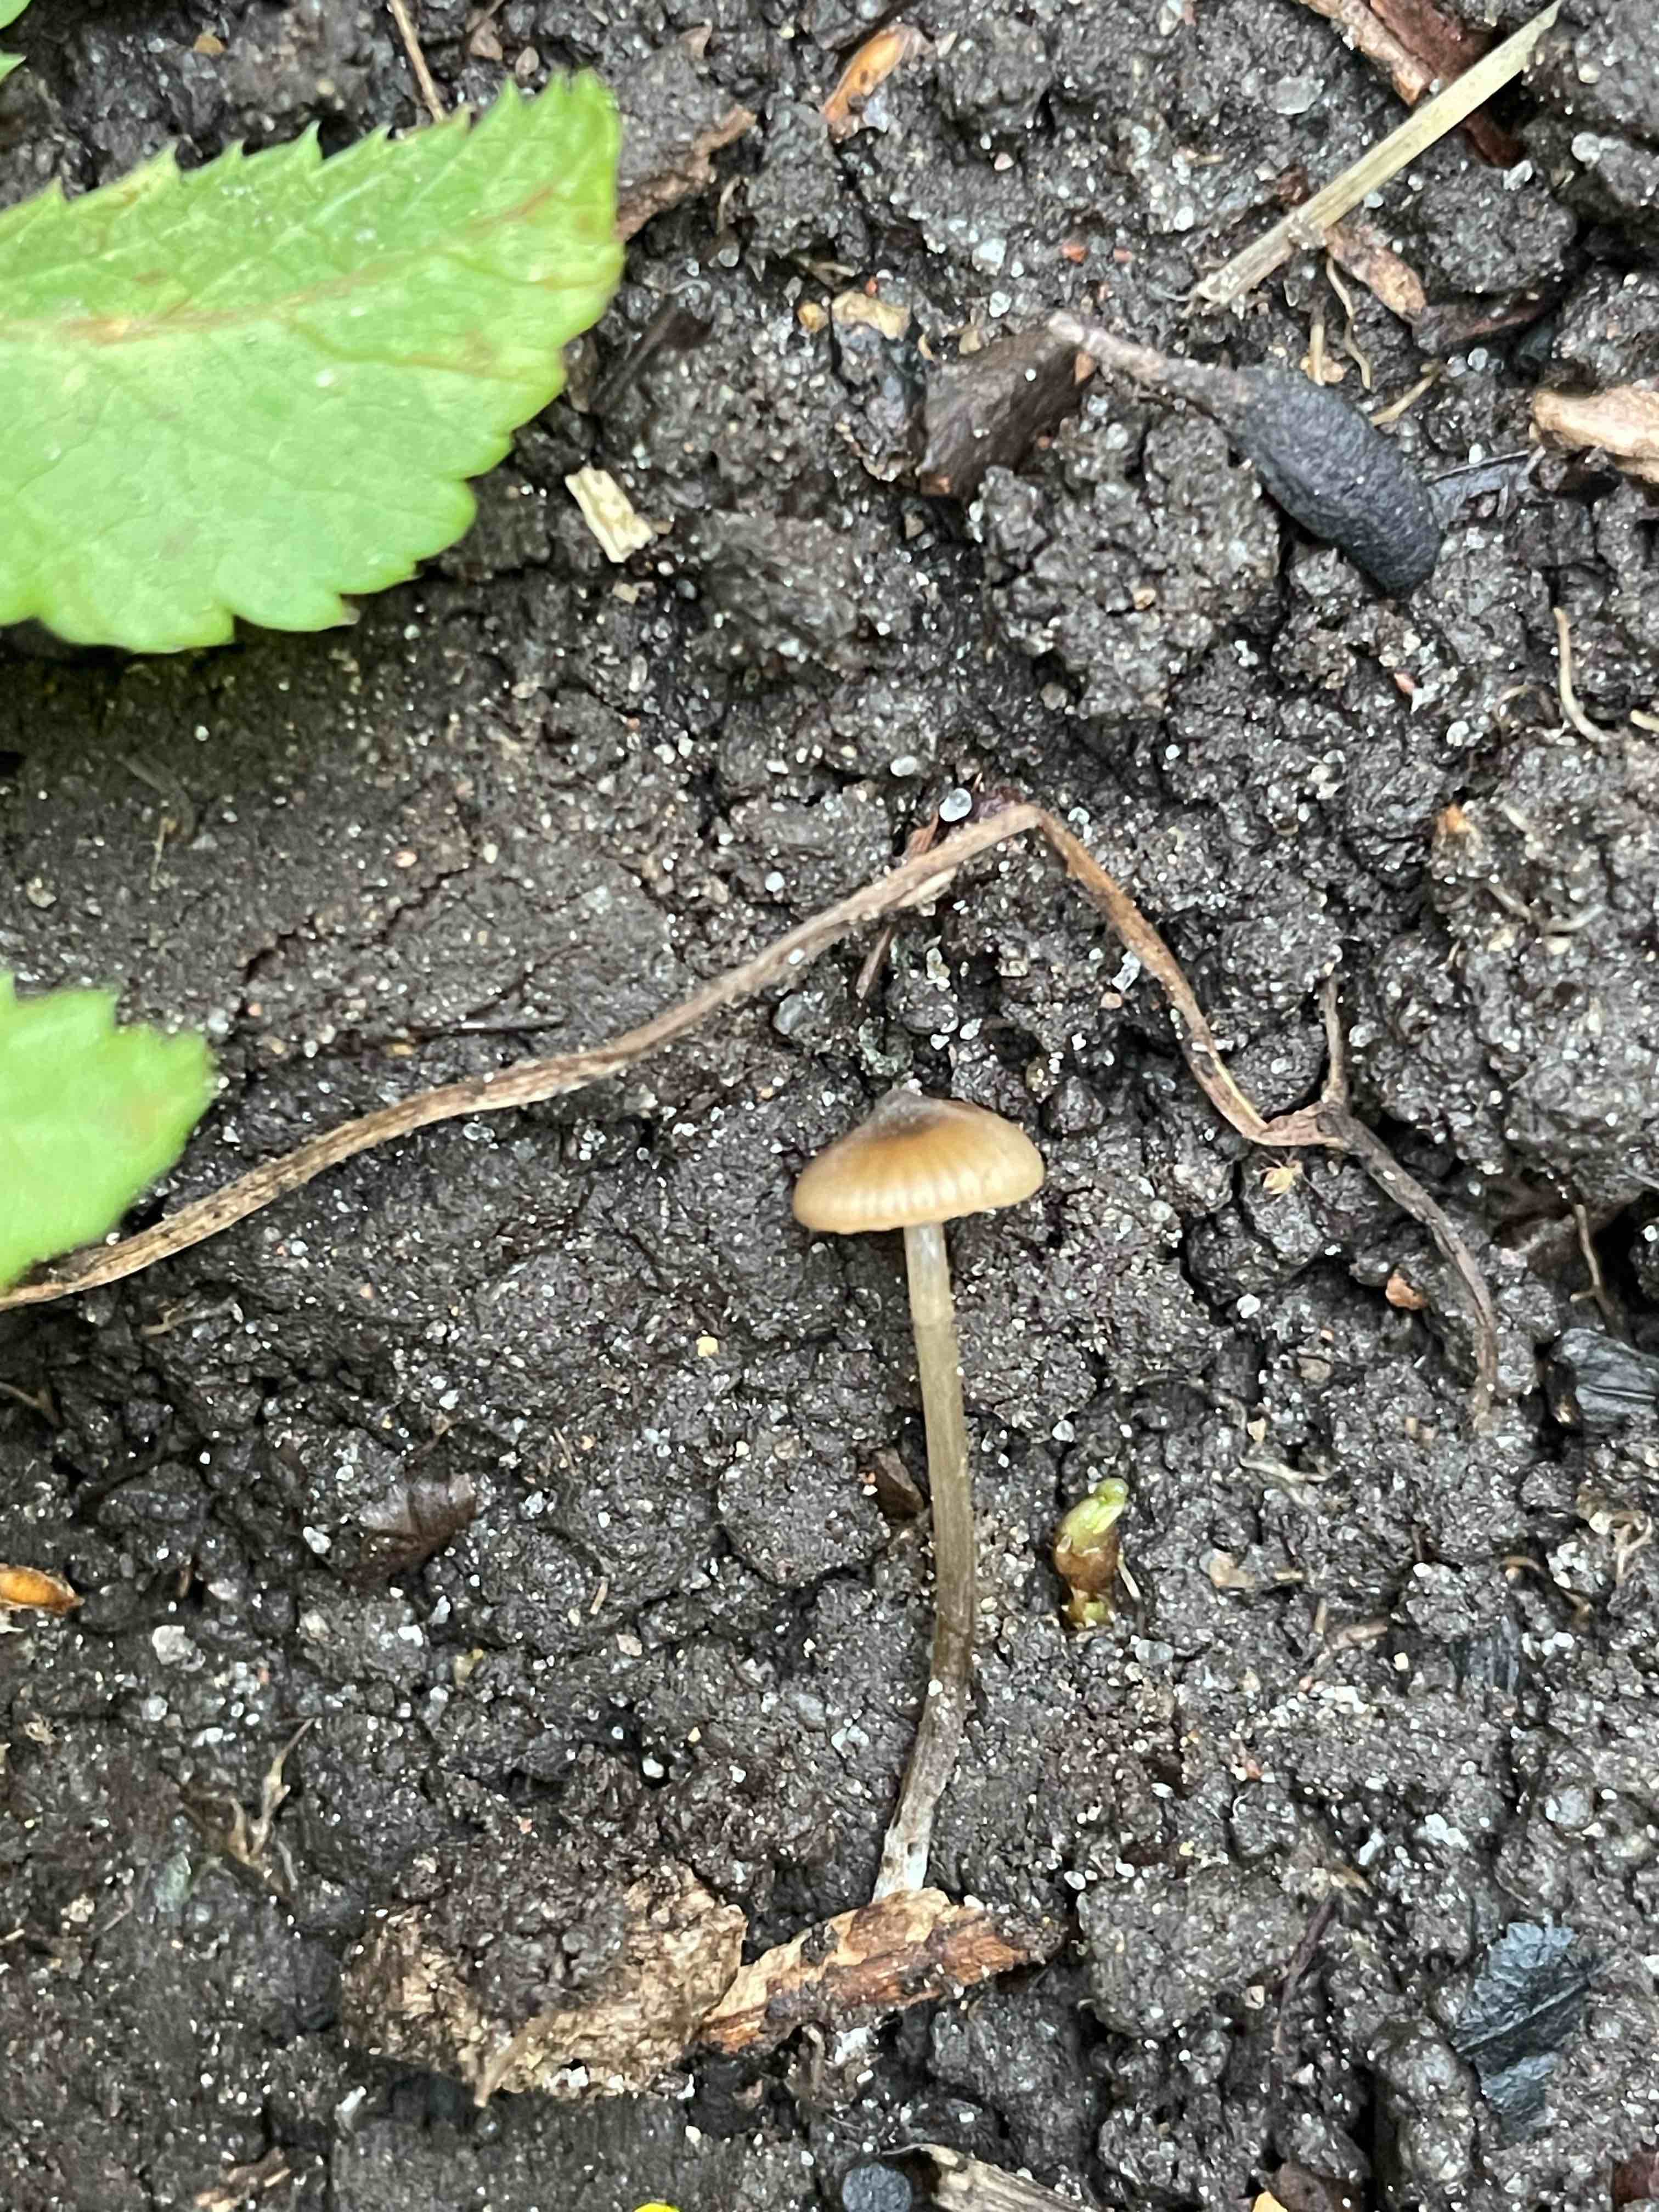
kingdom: Fungi
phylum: Basidiomycota
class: Agaricomycetes
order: Agaricales
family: Entolomataceae
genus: Entoloma
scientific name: Entoloma
